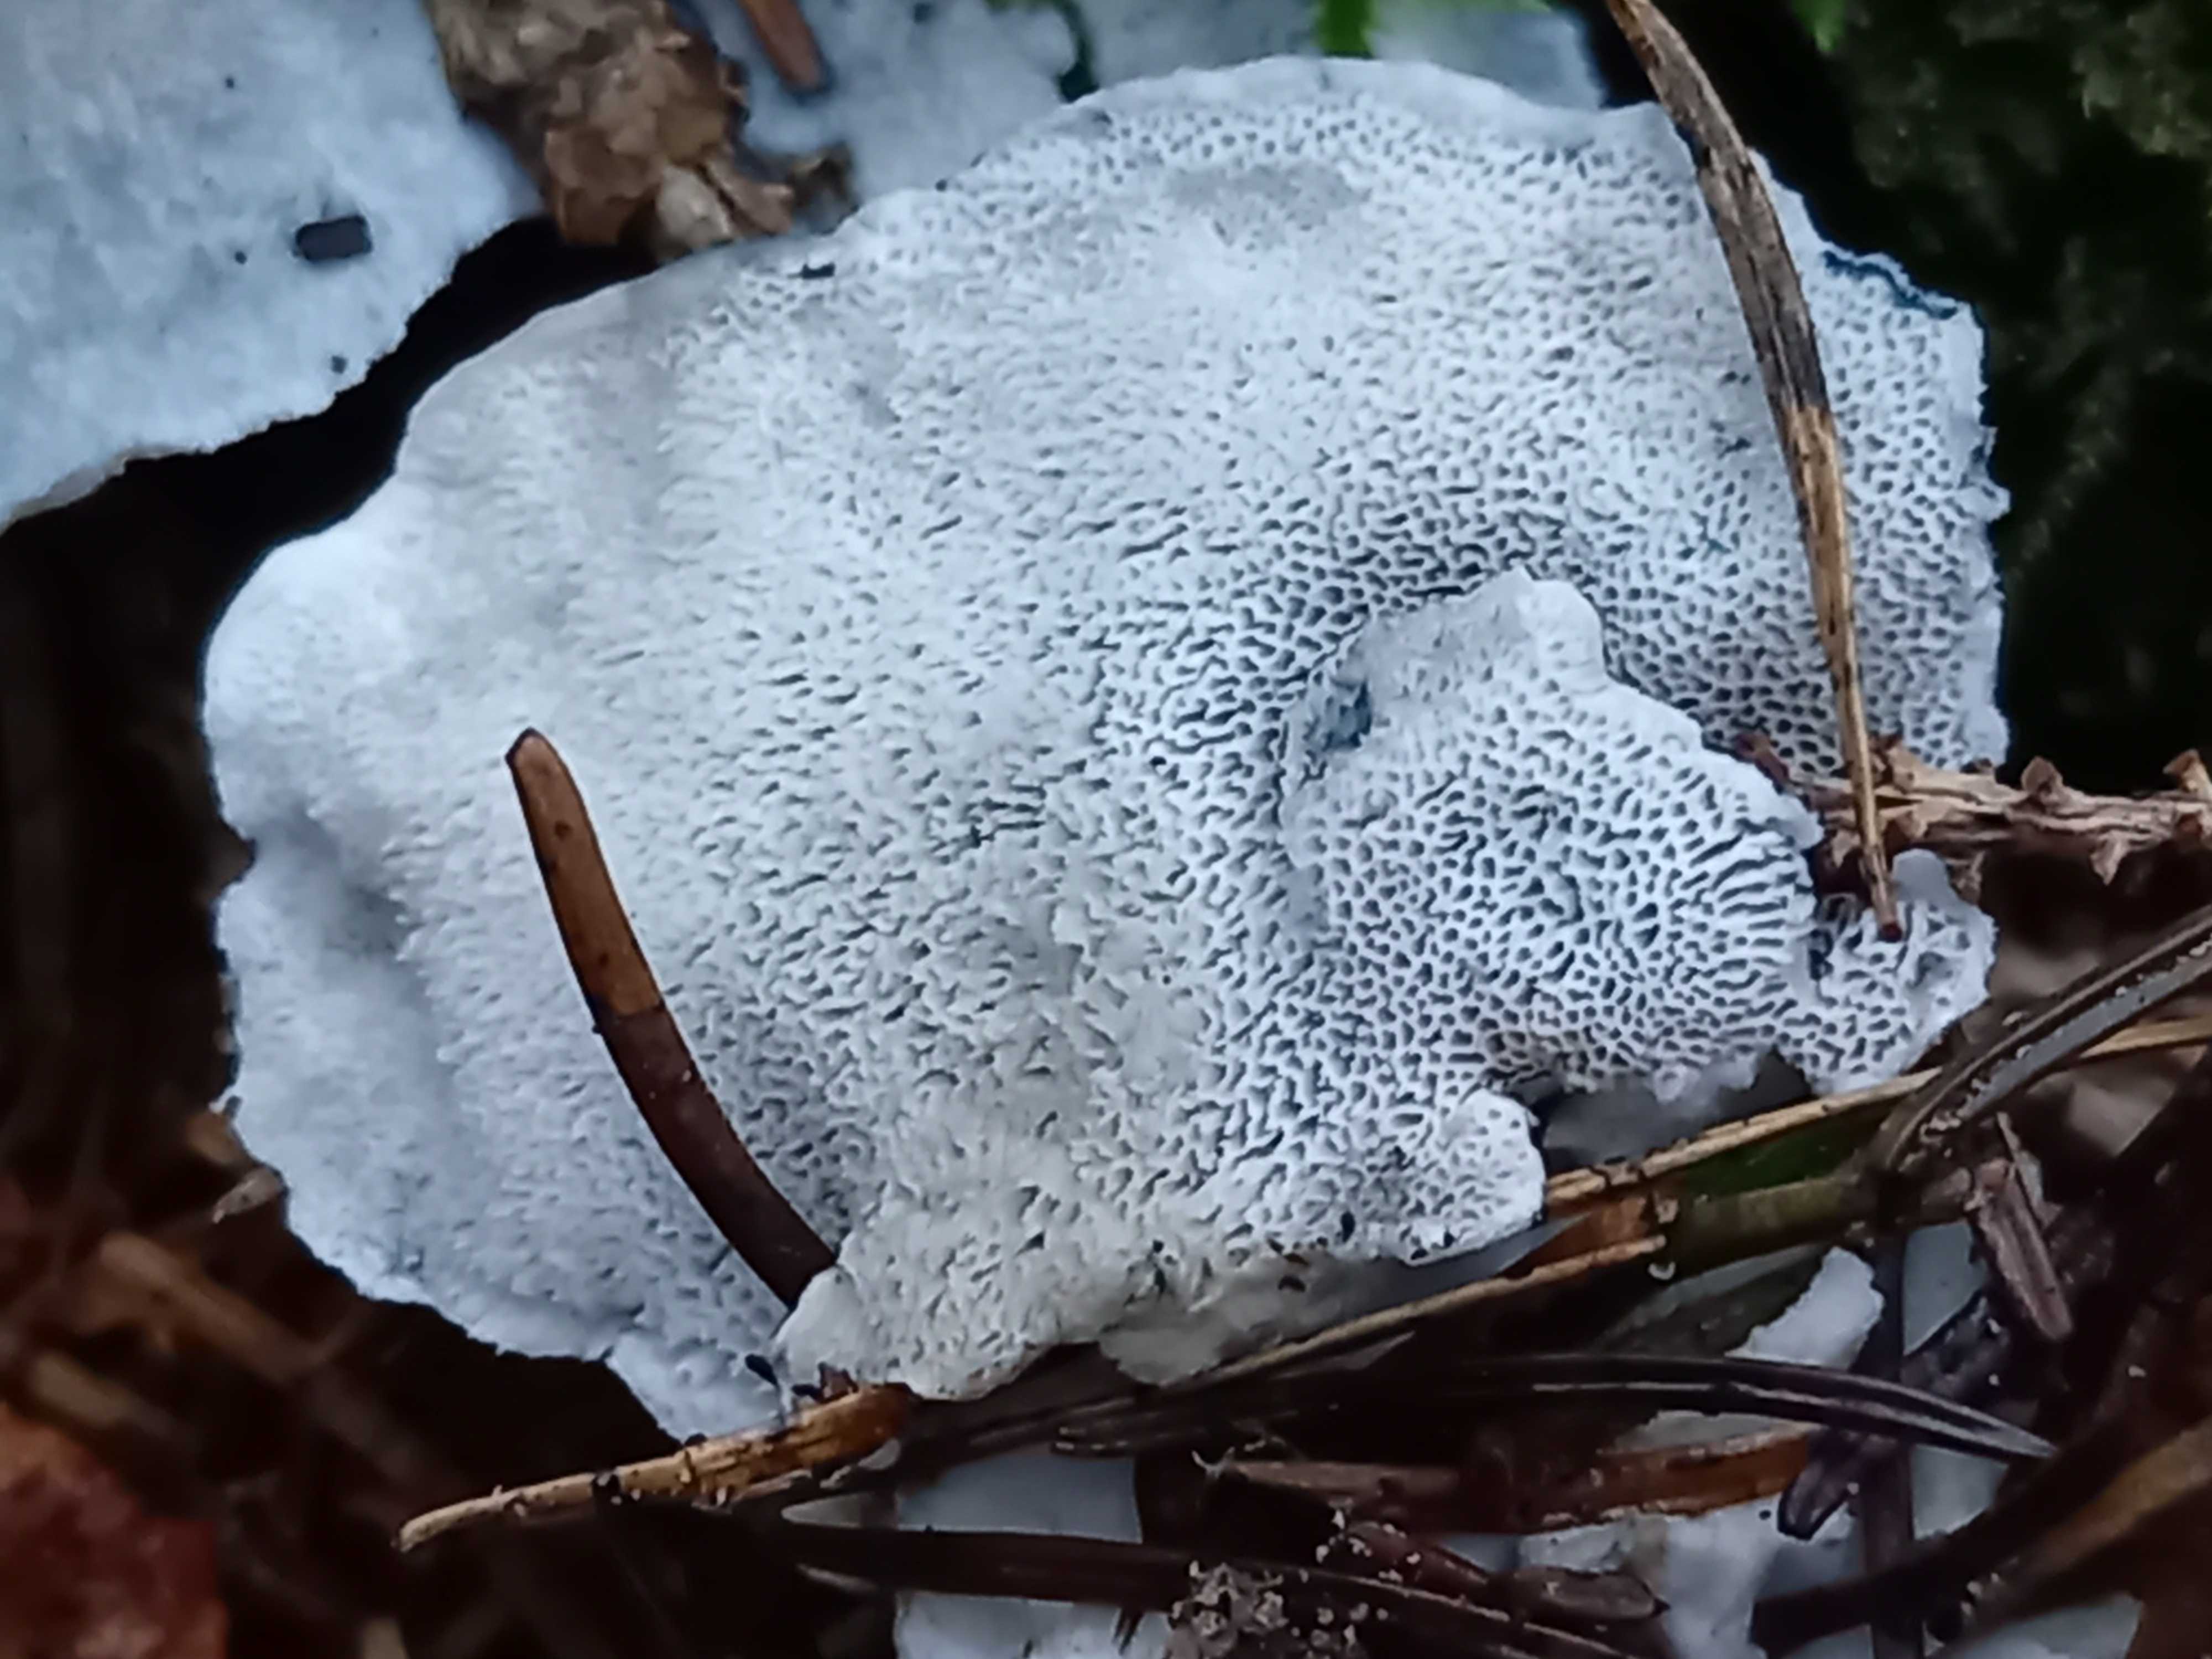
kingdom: Fungi
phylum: Basidiomycota
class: Agaricomycetes
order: Polyporales
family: Polyporaceae
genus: Cyanosporus
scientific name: Cyanosporus caesius
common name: blålig kødporesvamp
